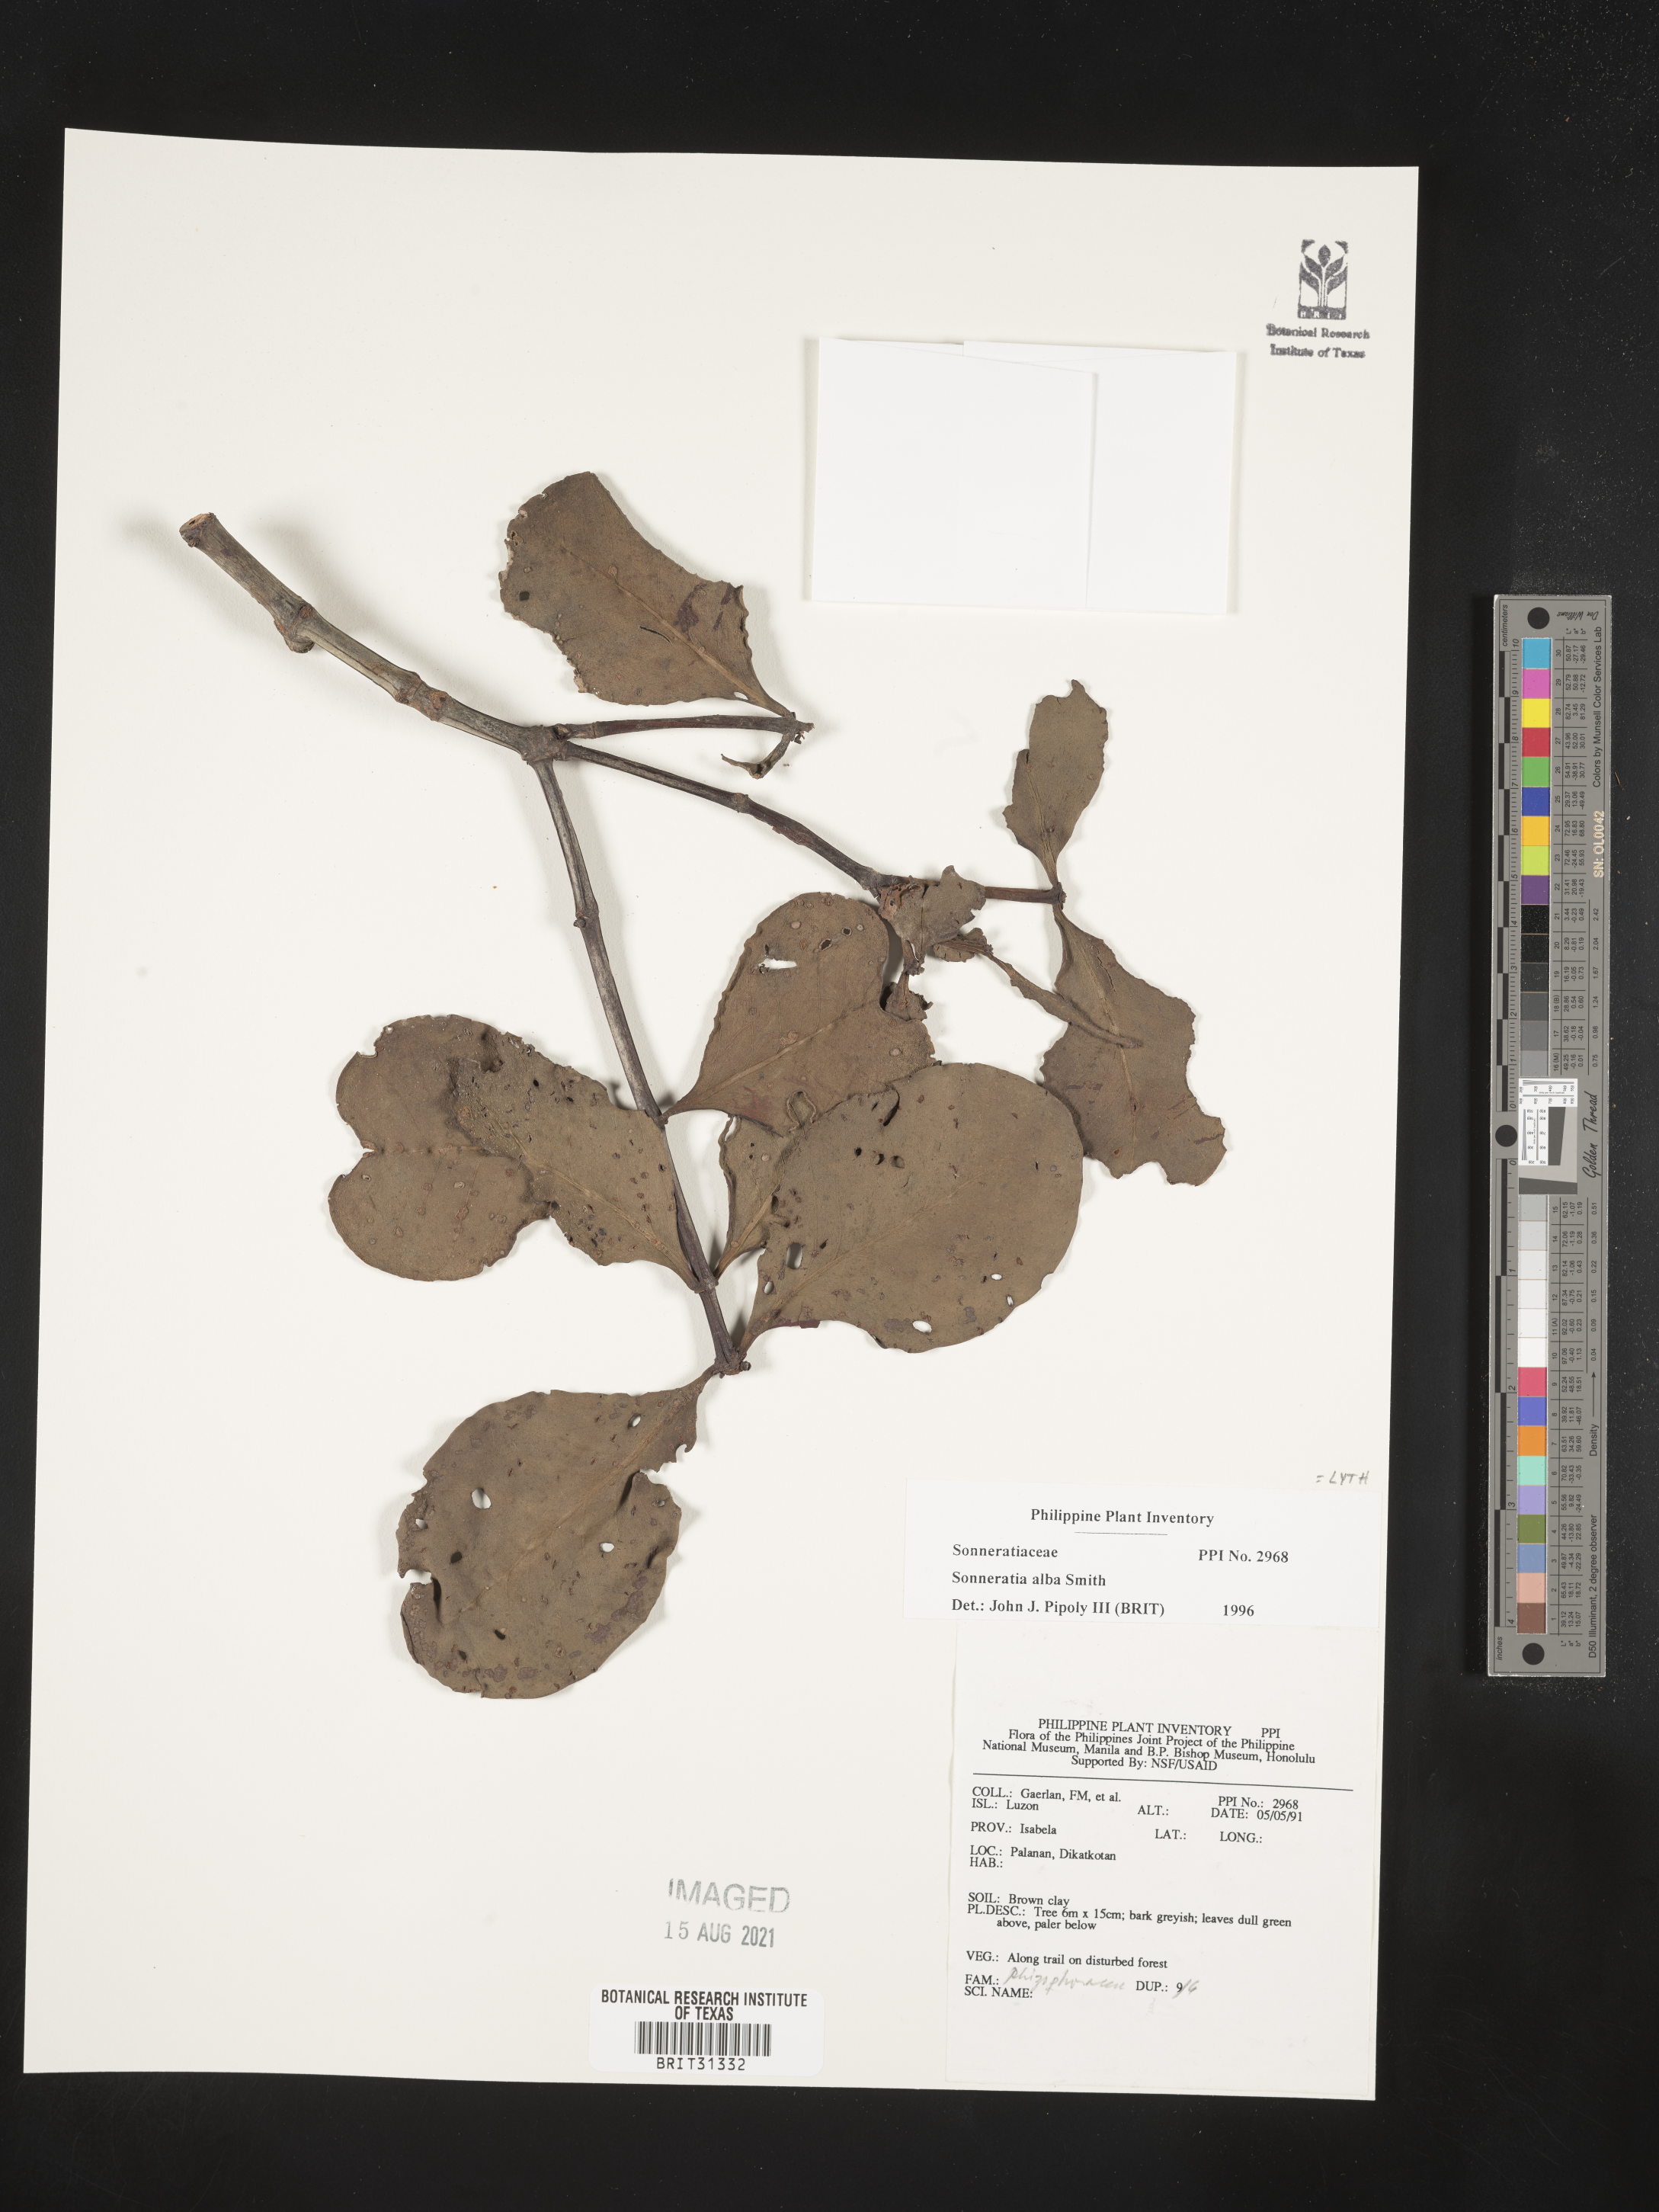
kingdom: Plantae
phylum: Tracheophyta
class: Magnoliopsida
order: Myrtales
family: Lythraceae
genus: Sonneratia
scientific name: Sonneratia alba
